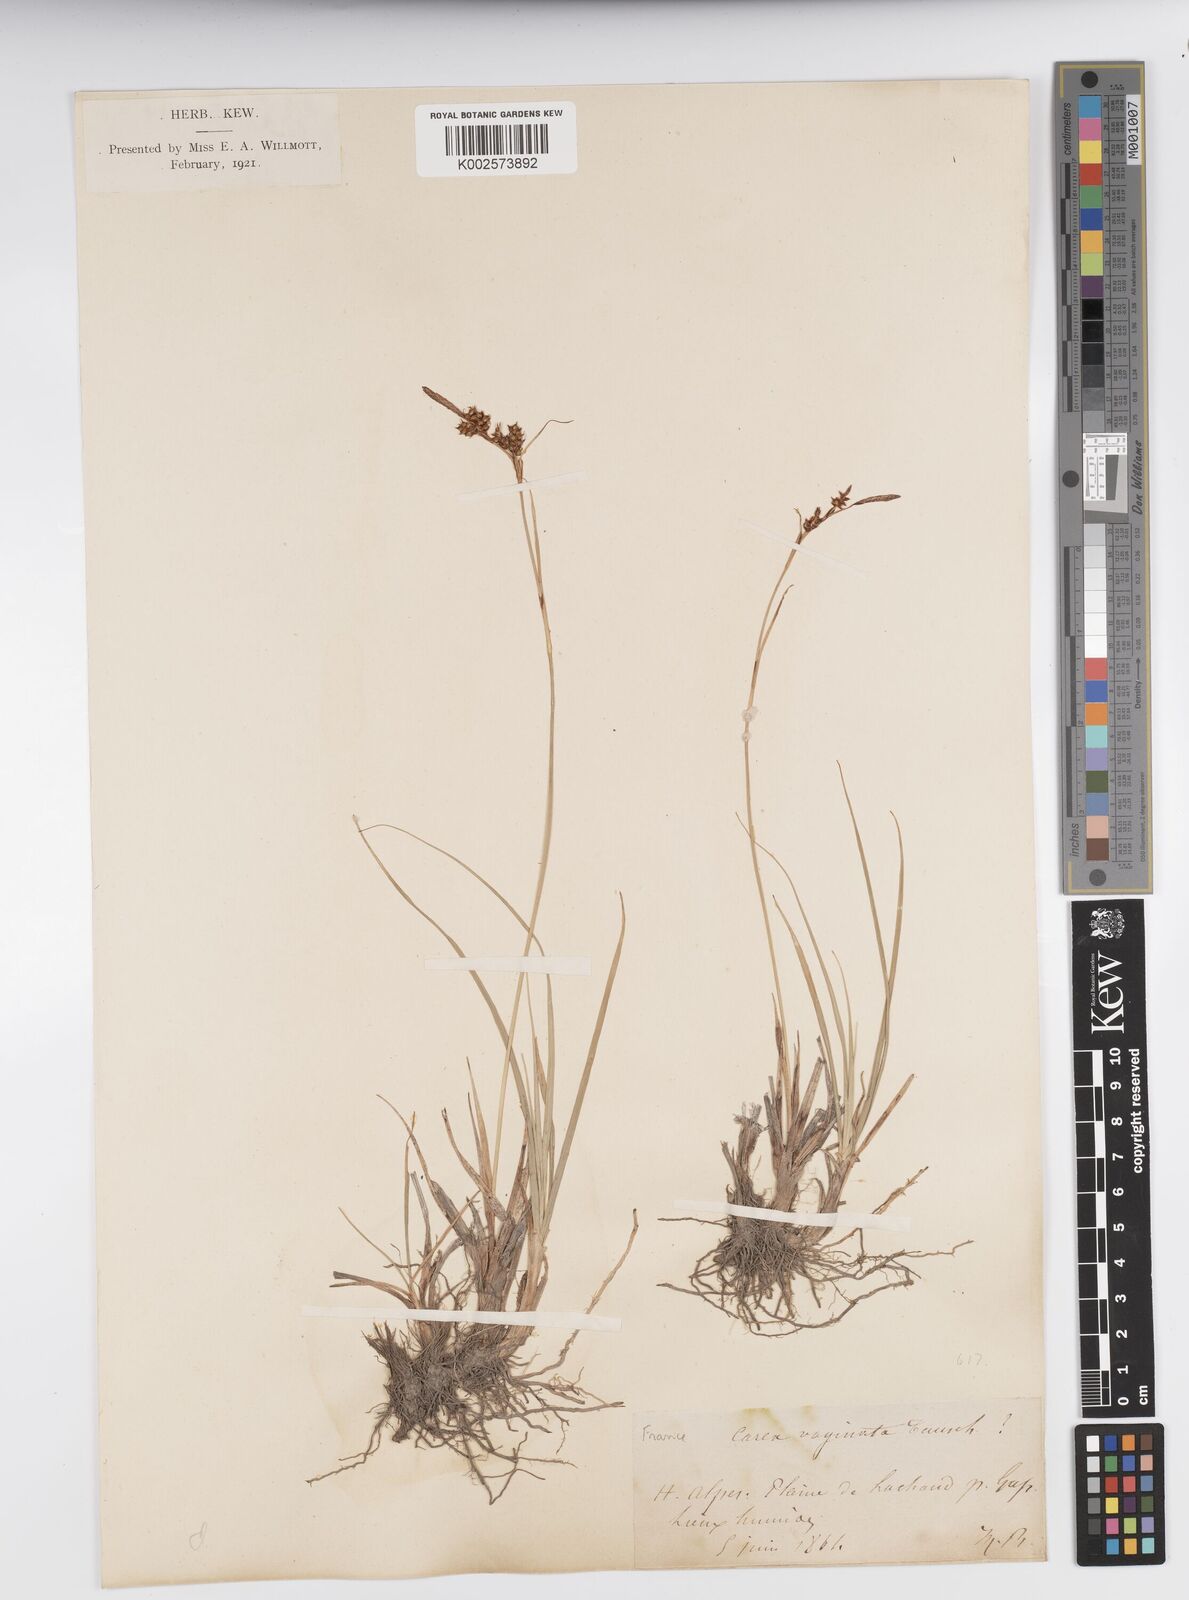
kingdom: Plantae
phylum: Tracheophyta
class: Liliopsida
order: Poales
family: Cyperaceae
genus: Carex
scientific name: Carex vaginata
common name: Sheathed sedge
